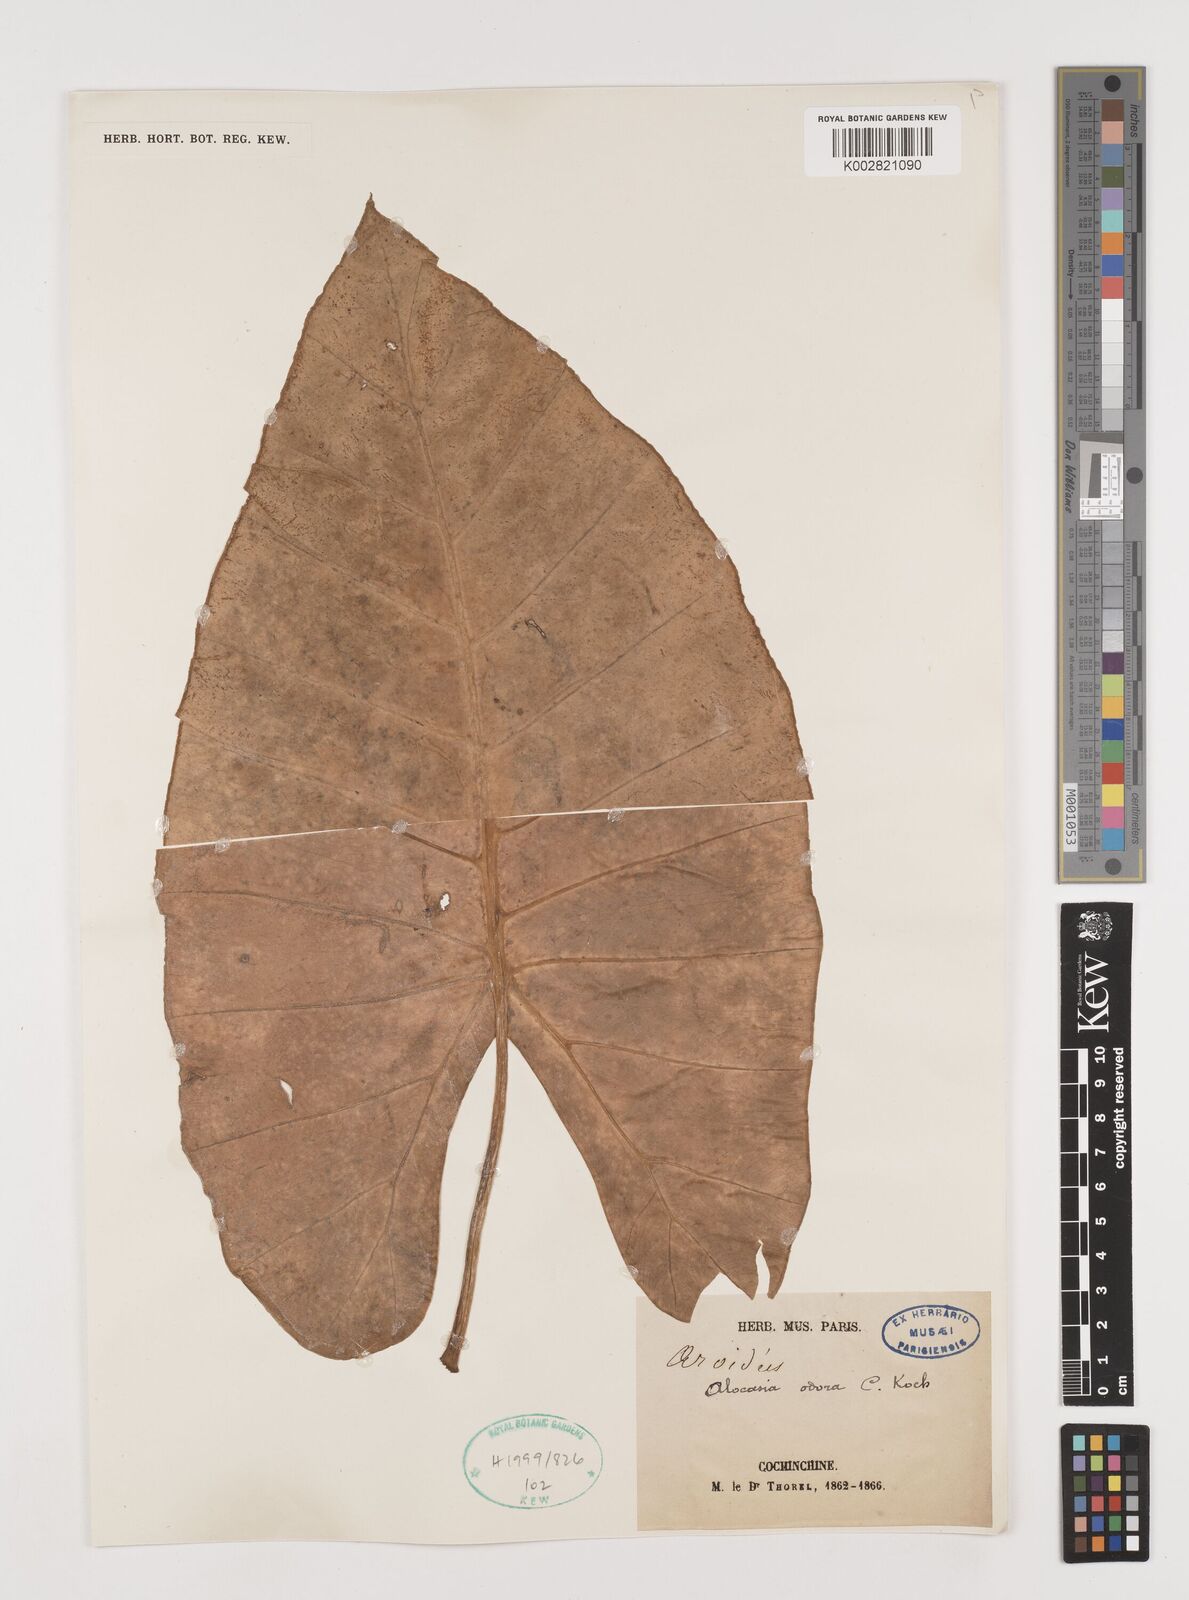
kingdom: Plantae
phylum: Tracheophyta
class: Liliopsida
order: Alismatales
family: Araceae
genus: Alocasia
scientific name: Alocasia
